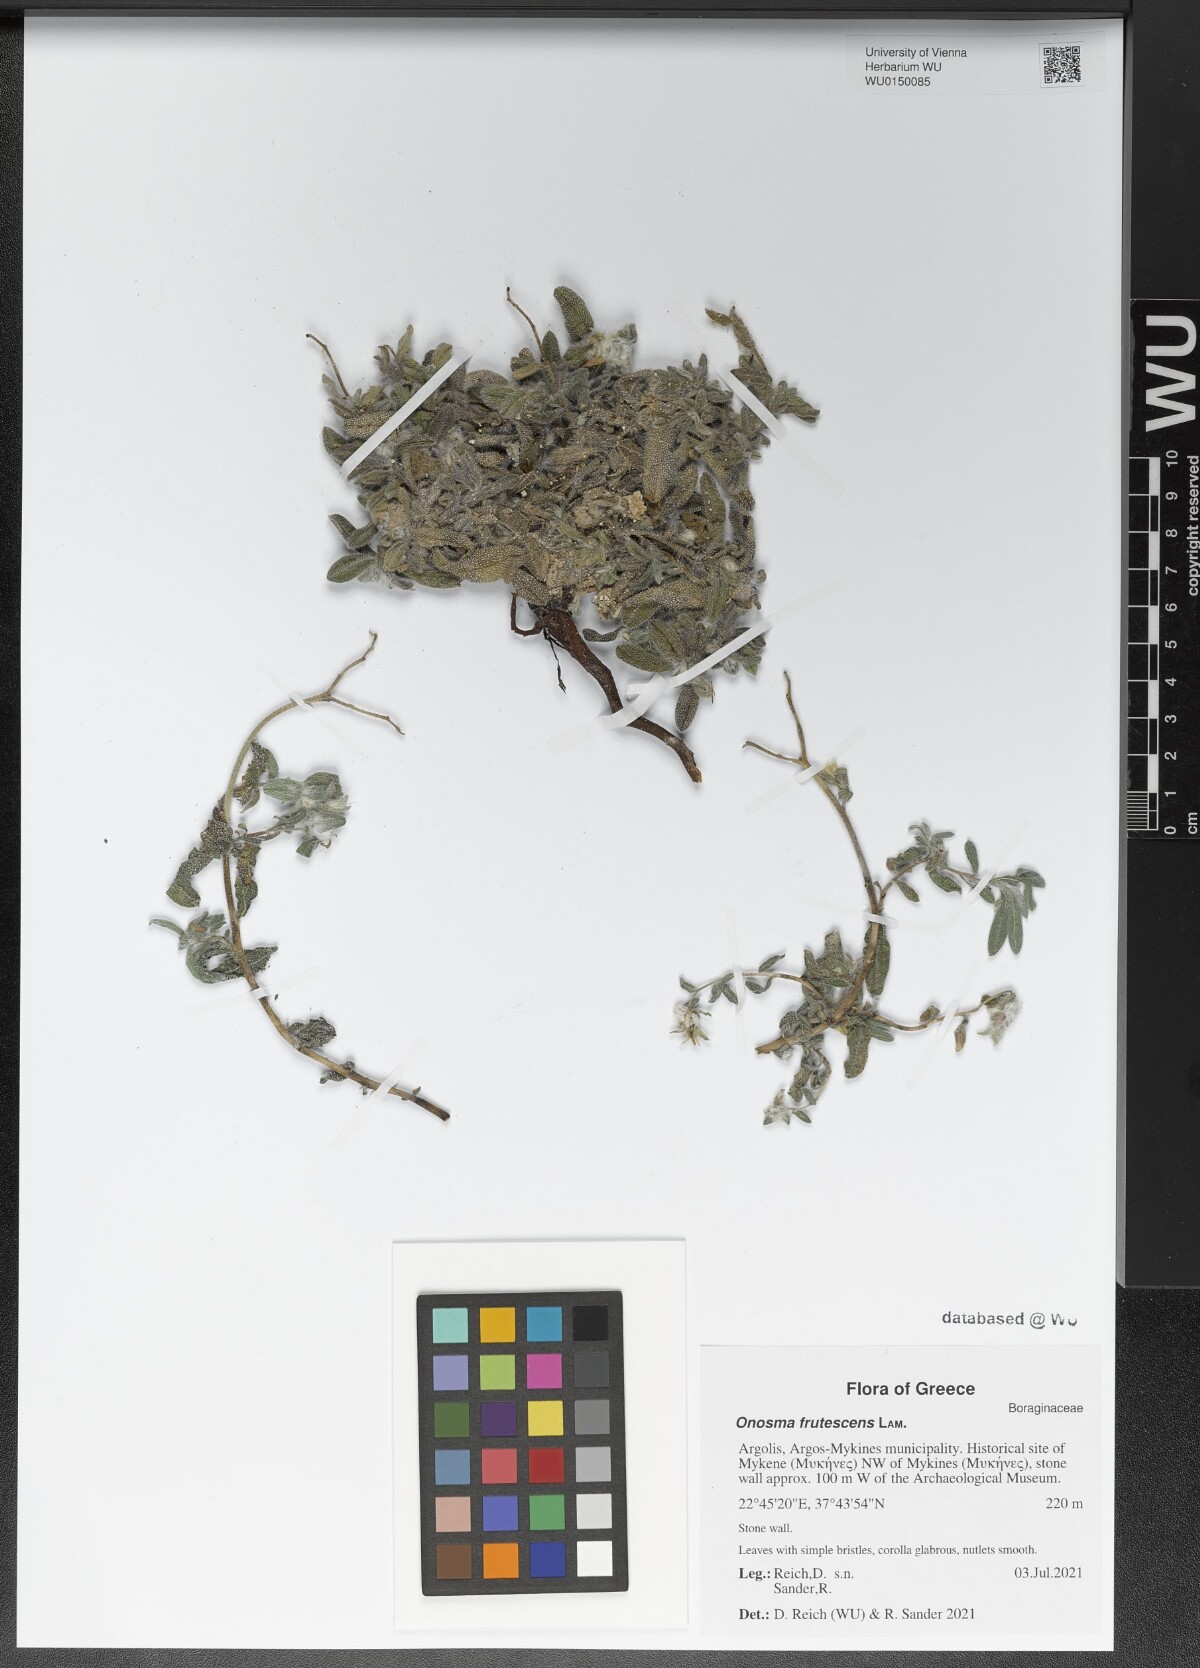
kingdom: Plantae
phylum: Tracheophyta
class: Magnoliopsida
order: Boraginales
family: Boraginaceae
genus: Onosma
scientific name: Onosma frutescens
